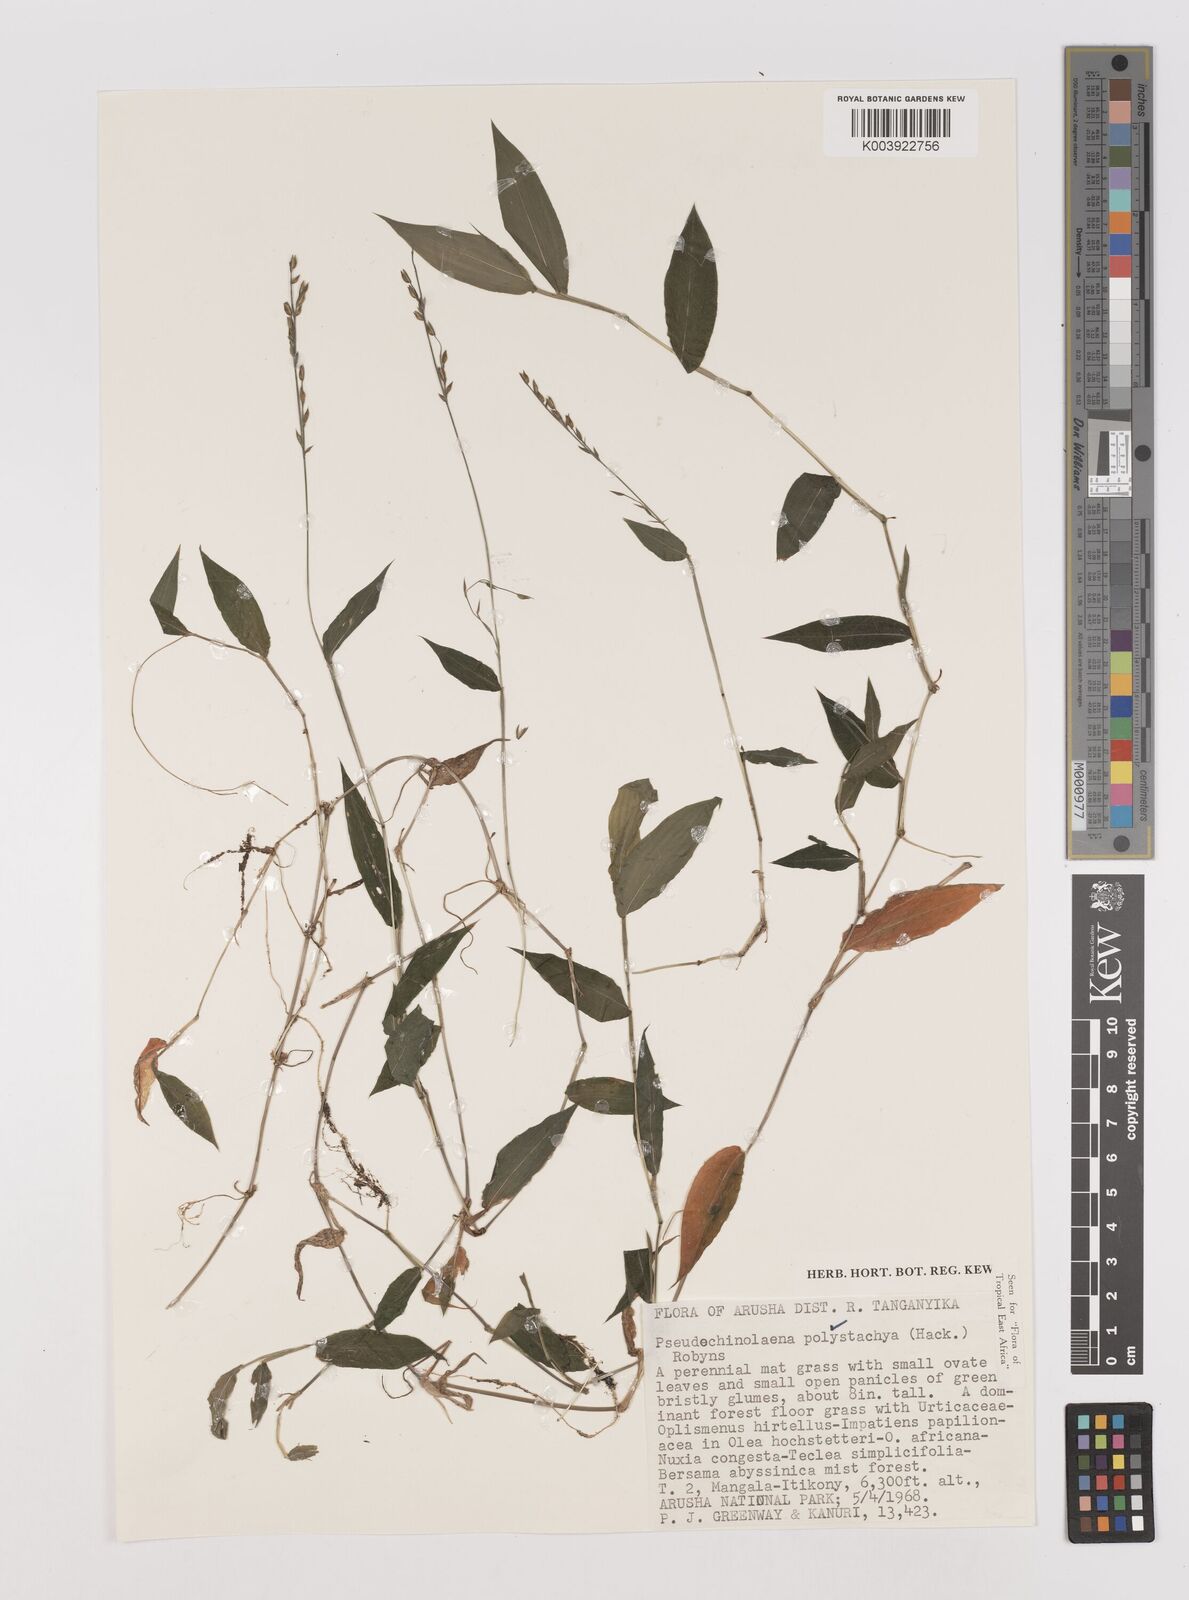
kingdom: Plantae
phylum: Tracheophyta
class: Liliopsida
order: Poales
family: Poaceae
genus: Pseudechinolaena
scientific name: Pseudechinolaena polystachya
